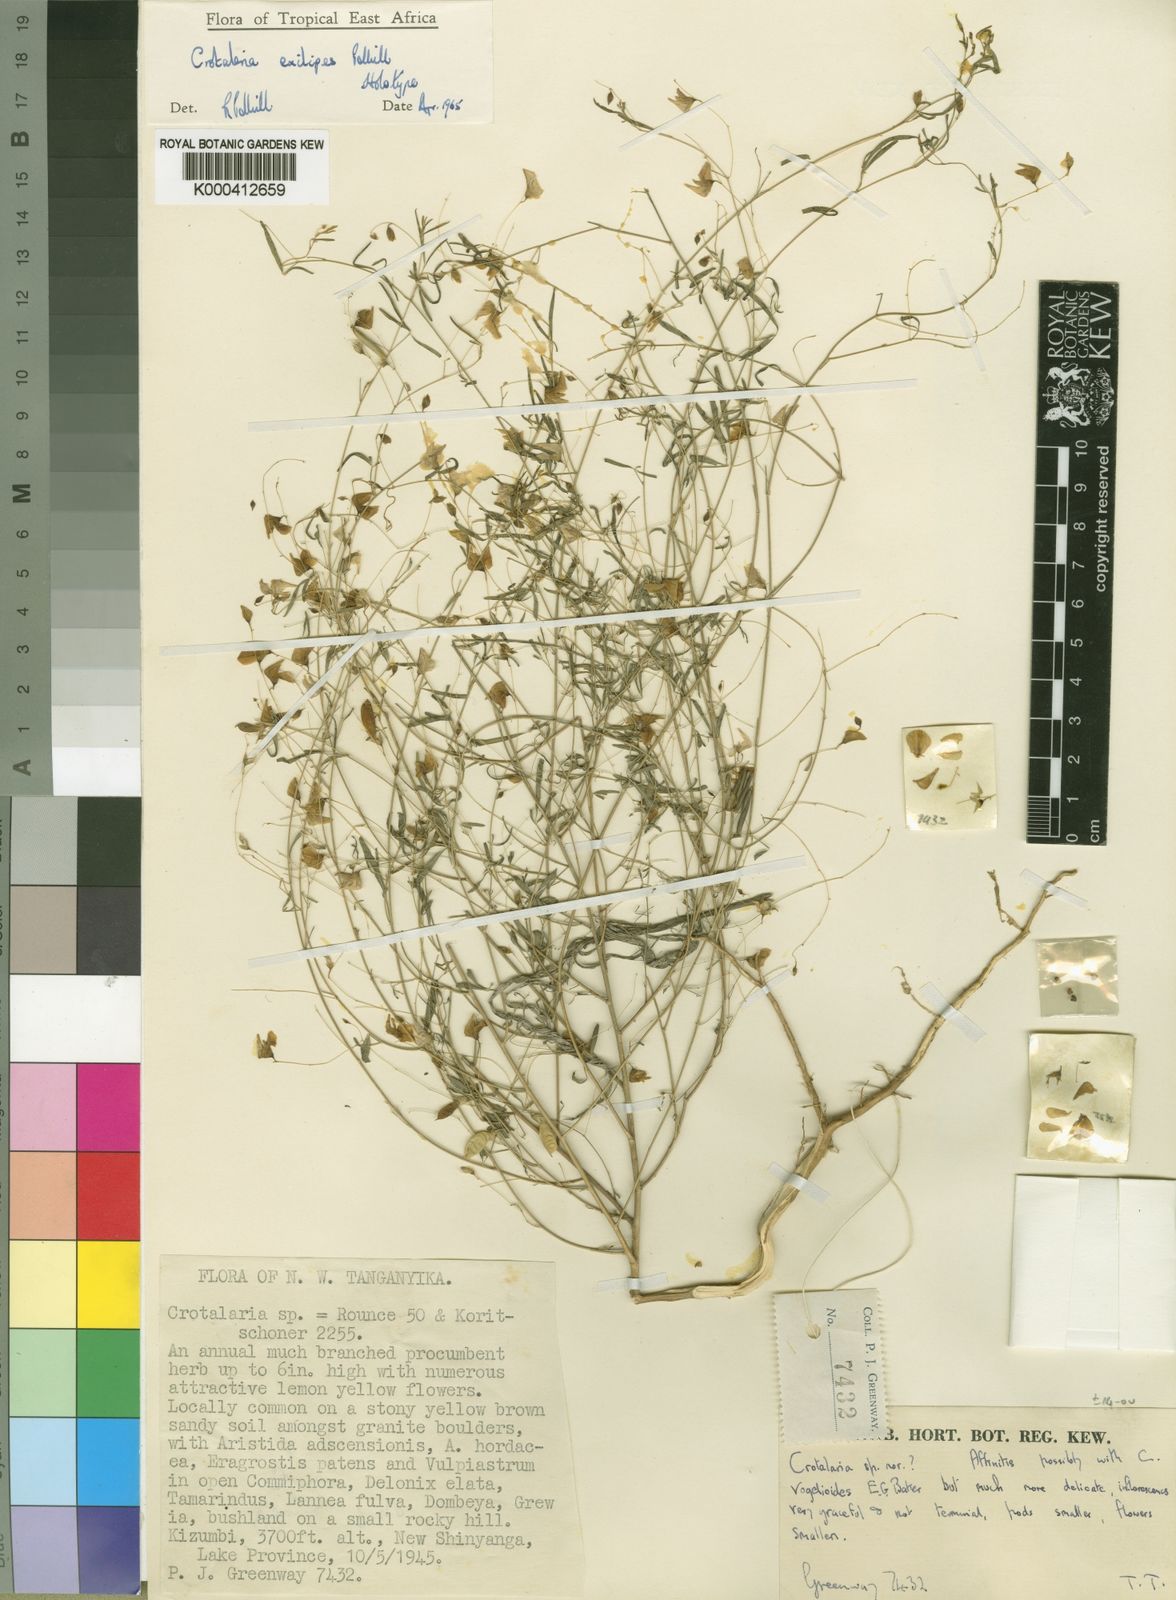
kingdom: Plantae
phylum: Tracheophyta
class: Magnoliopsida
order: Fabales
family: Fabaceae
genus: Crotalaria
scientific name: Crotalaria exilipes
